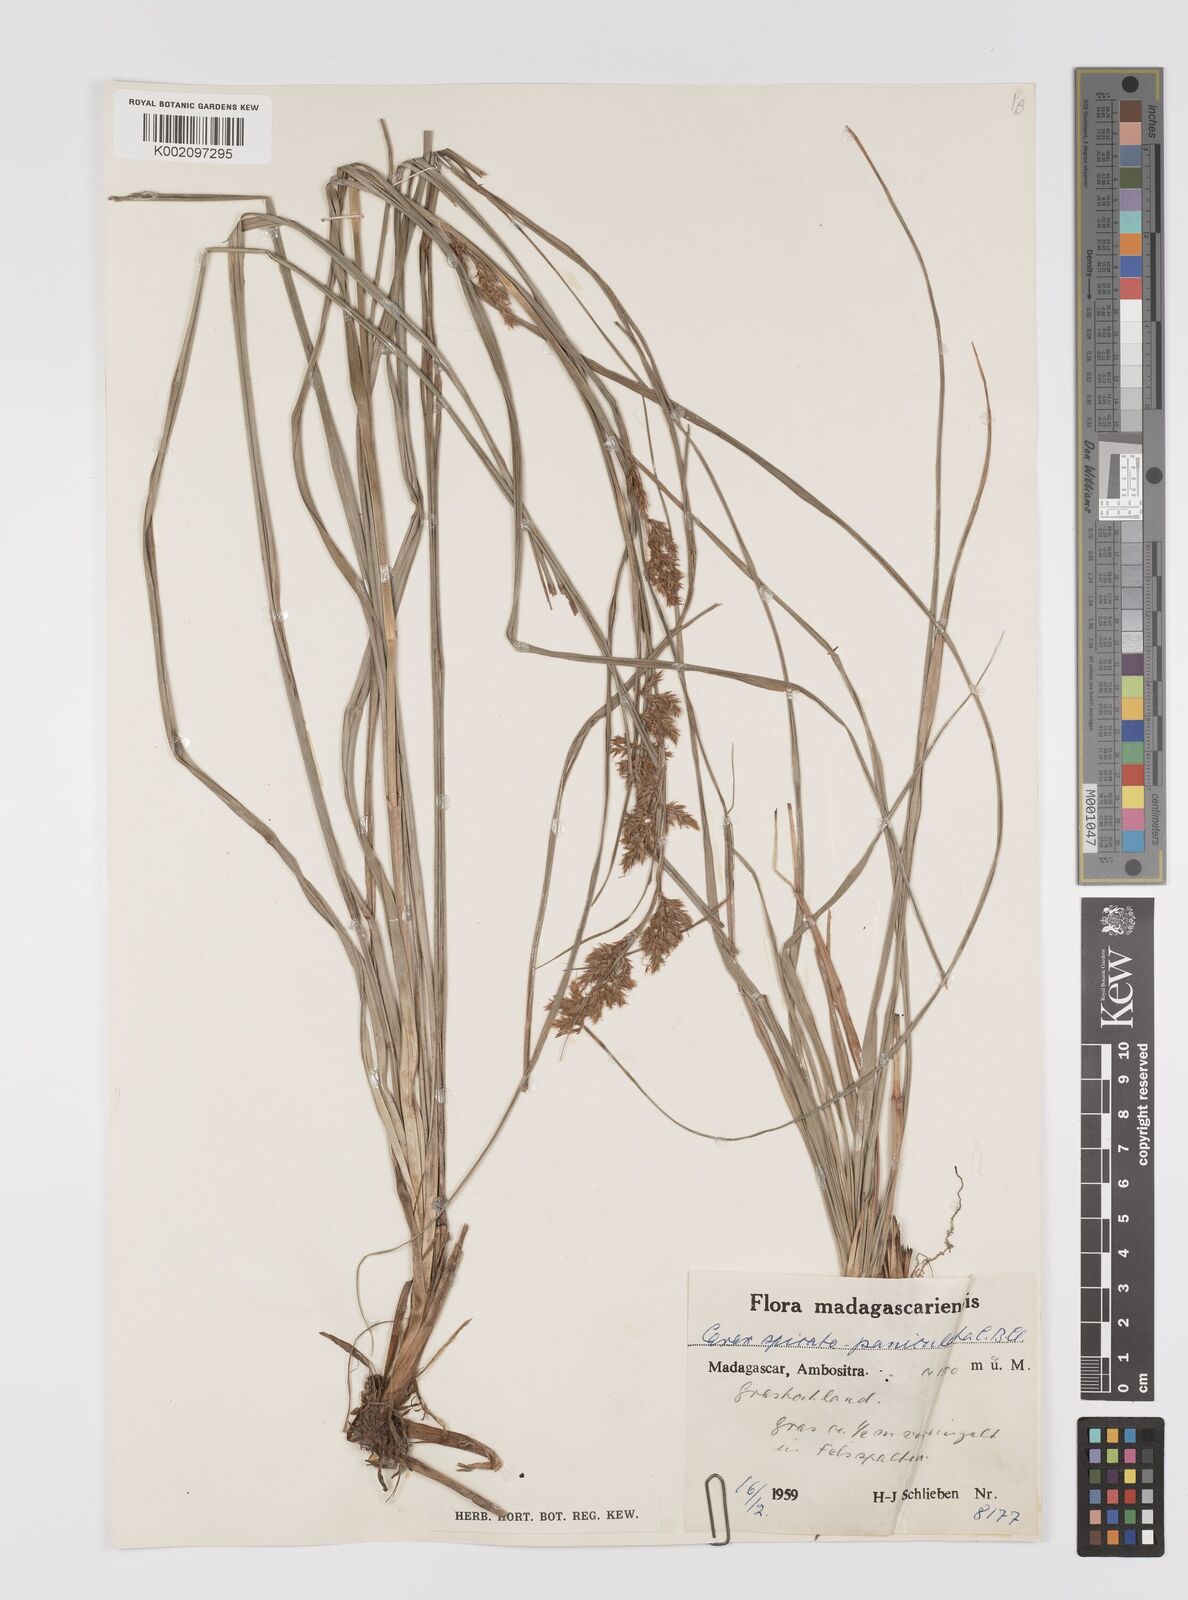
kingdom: Plantae
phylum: Tracheophyta
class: Liliopsida
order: Poales
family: Cyperaceae
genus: Carex
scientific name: Carex spicatopaniculata
